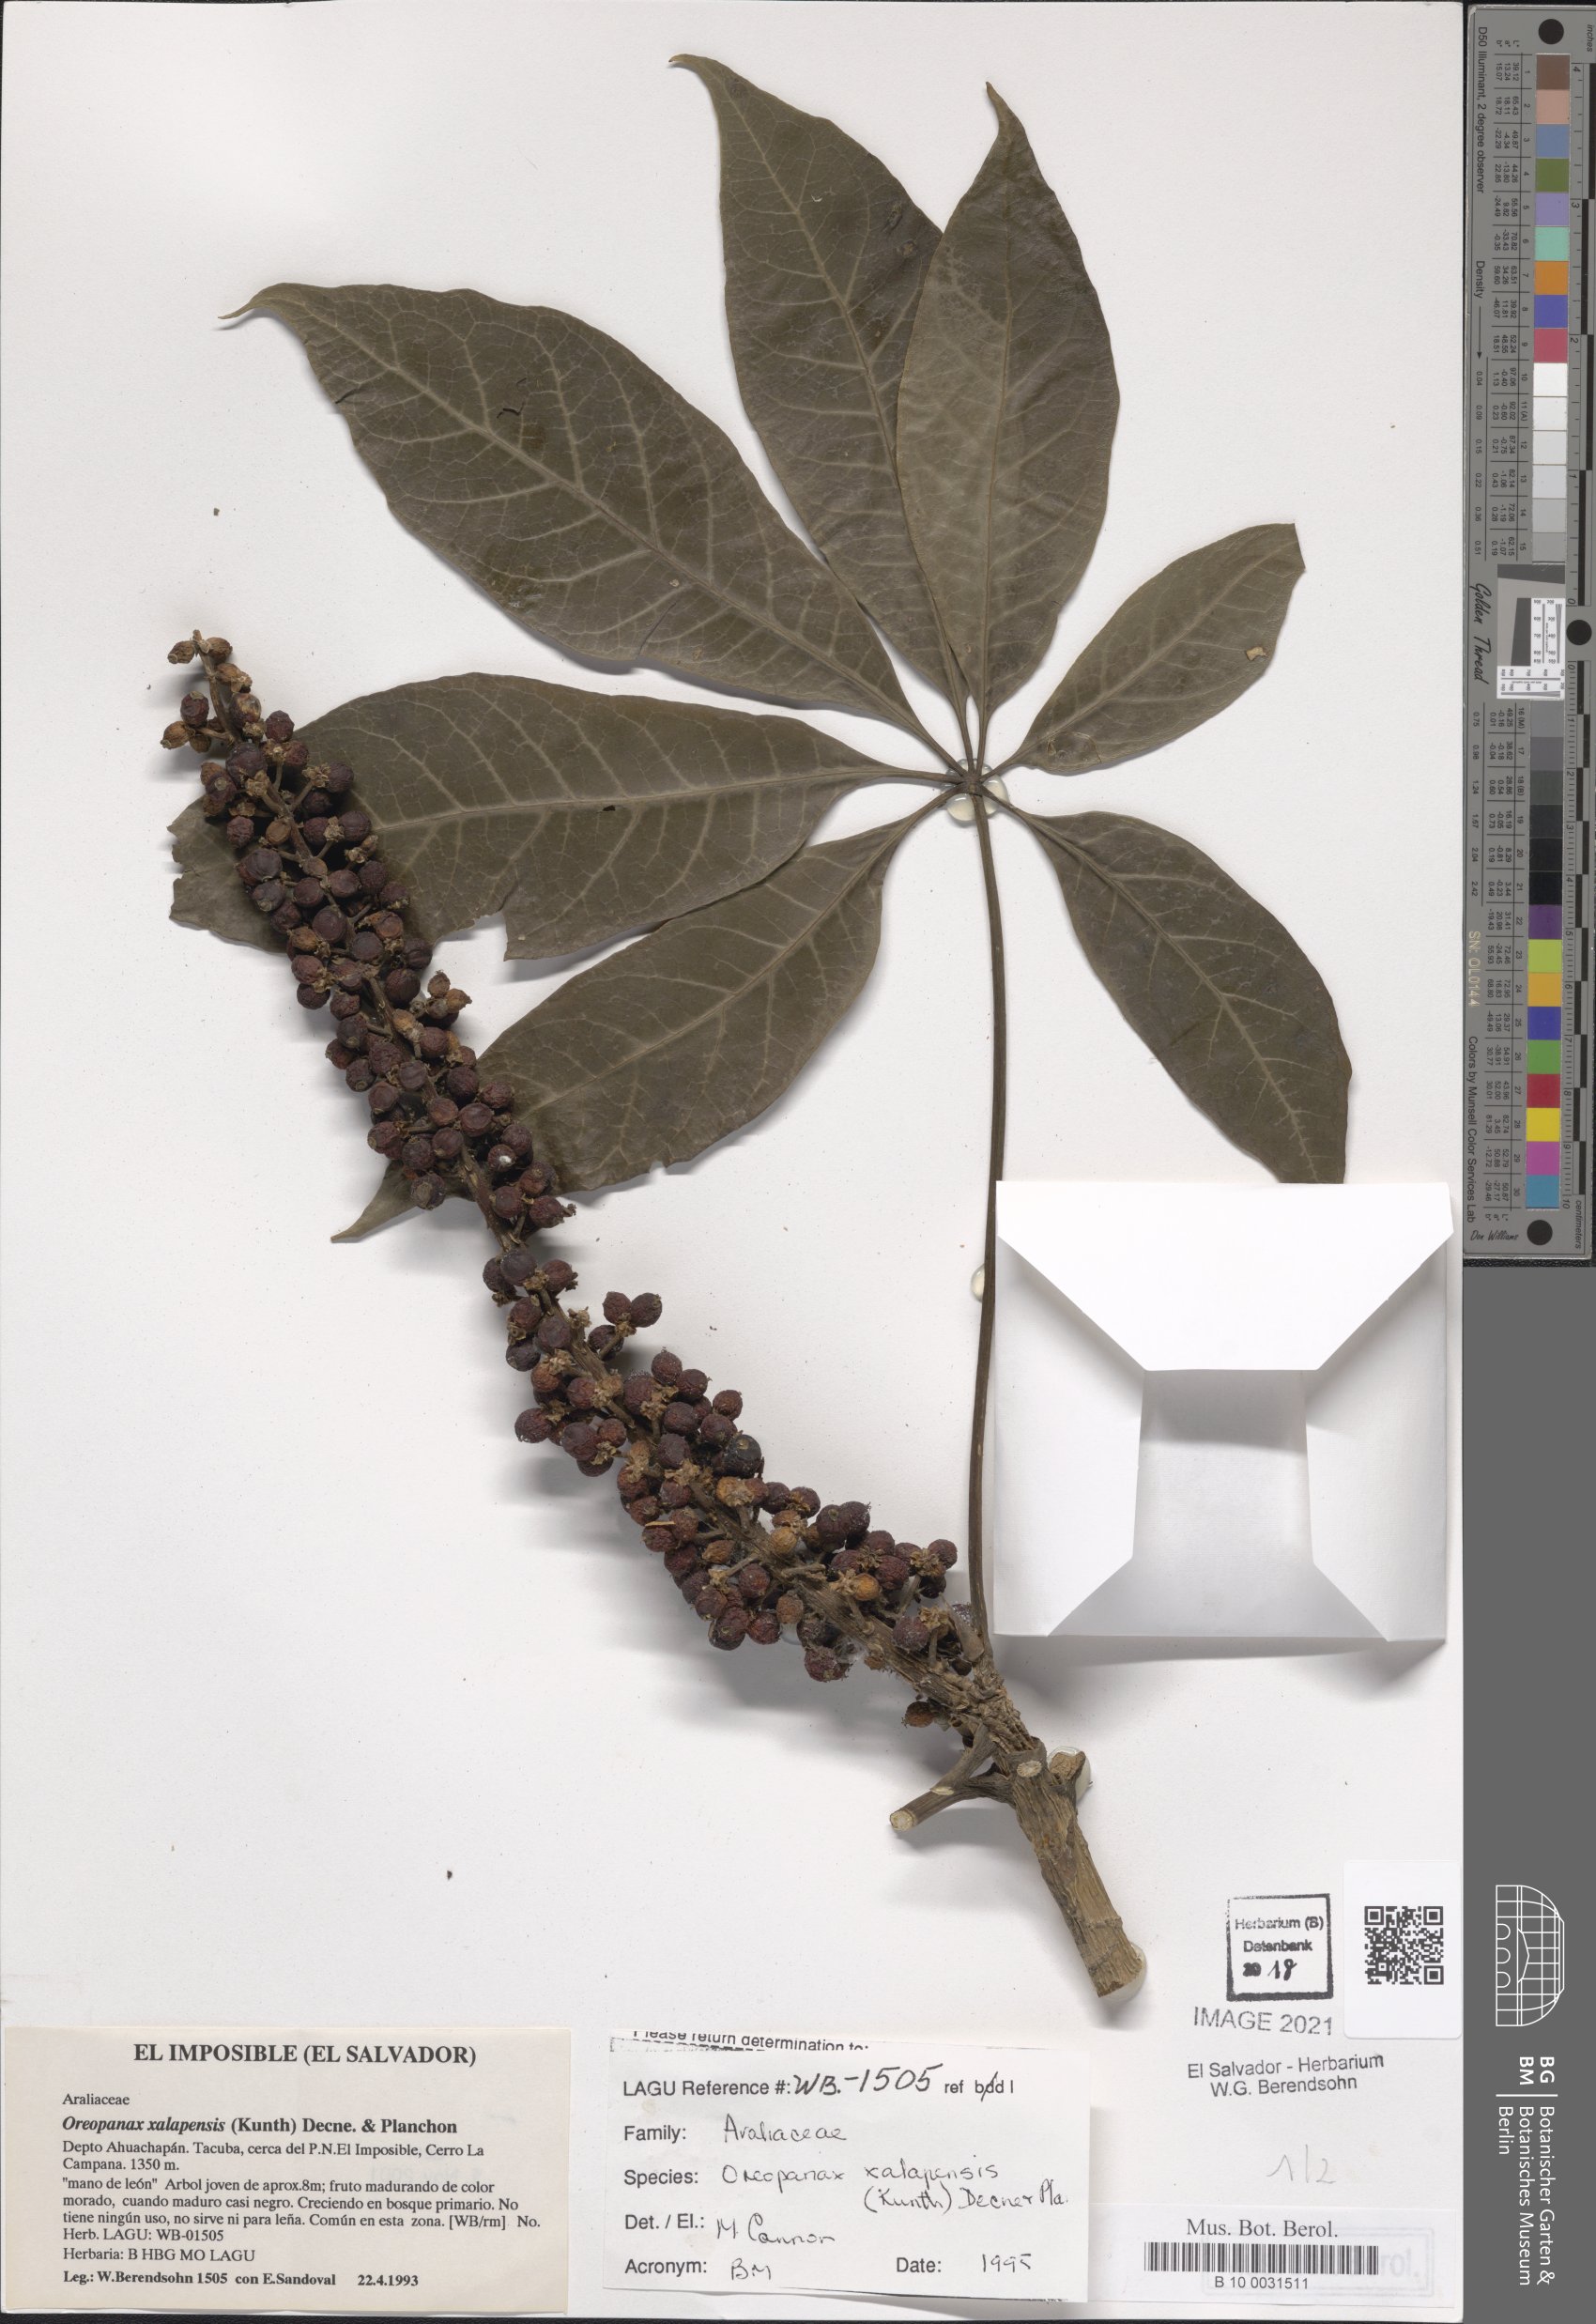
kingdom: Plantae
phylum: Tracheophyta
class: Magnoliopsida
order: Apiales
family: Araliaceae
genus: Oreopanax
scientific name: Oreopanax xalapensis
